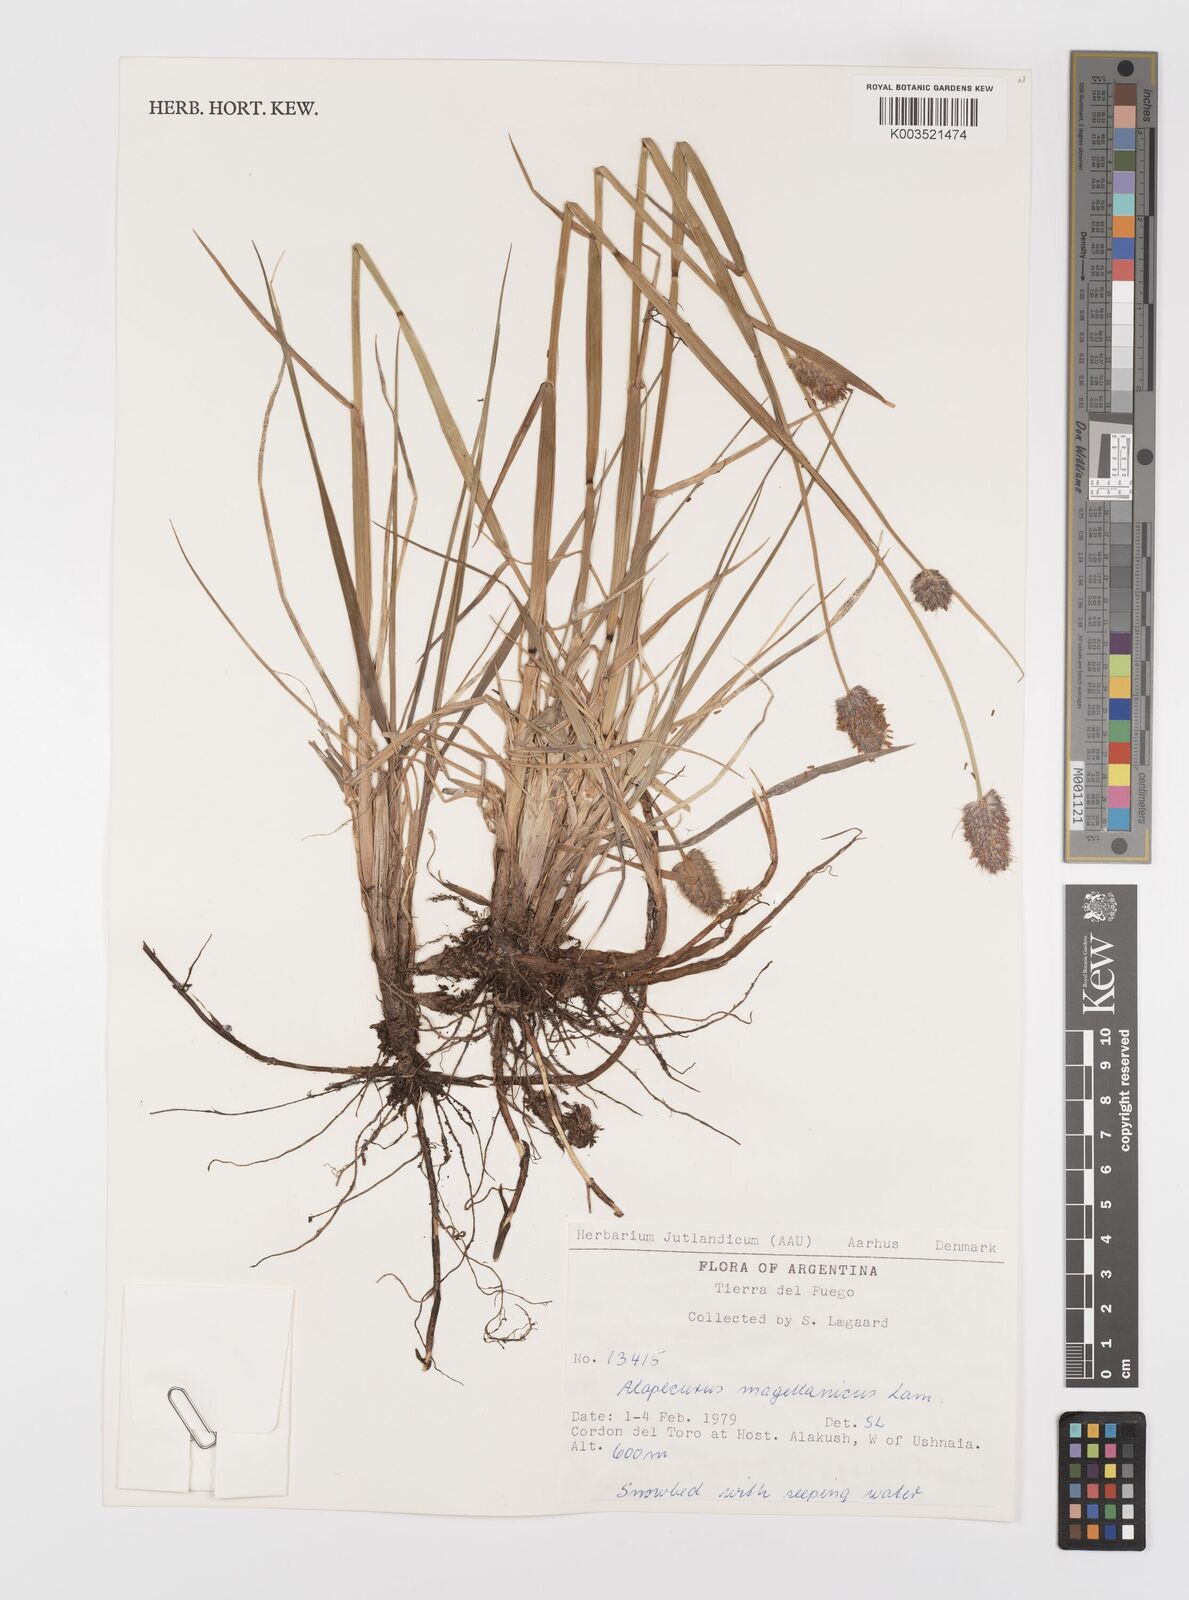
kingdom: Plantae
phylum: Tracheophyta
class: Liliopsida
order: Poales
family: Poaceae
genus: Alopecurus
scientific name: Alopecurus magellanicus
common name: Alpine foxtail
